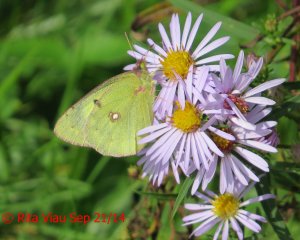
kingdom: Animalia
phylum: Arthropoda
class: Insecta
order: Lepidoptera
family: Pieridae
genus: Colias
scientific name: Colias philodice
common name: Clouded Sulphur
